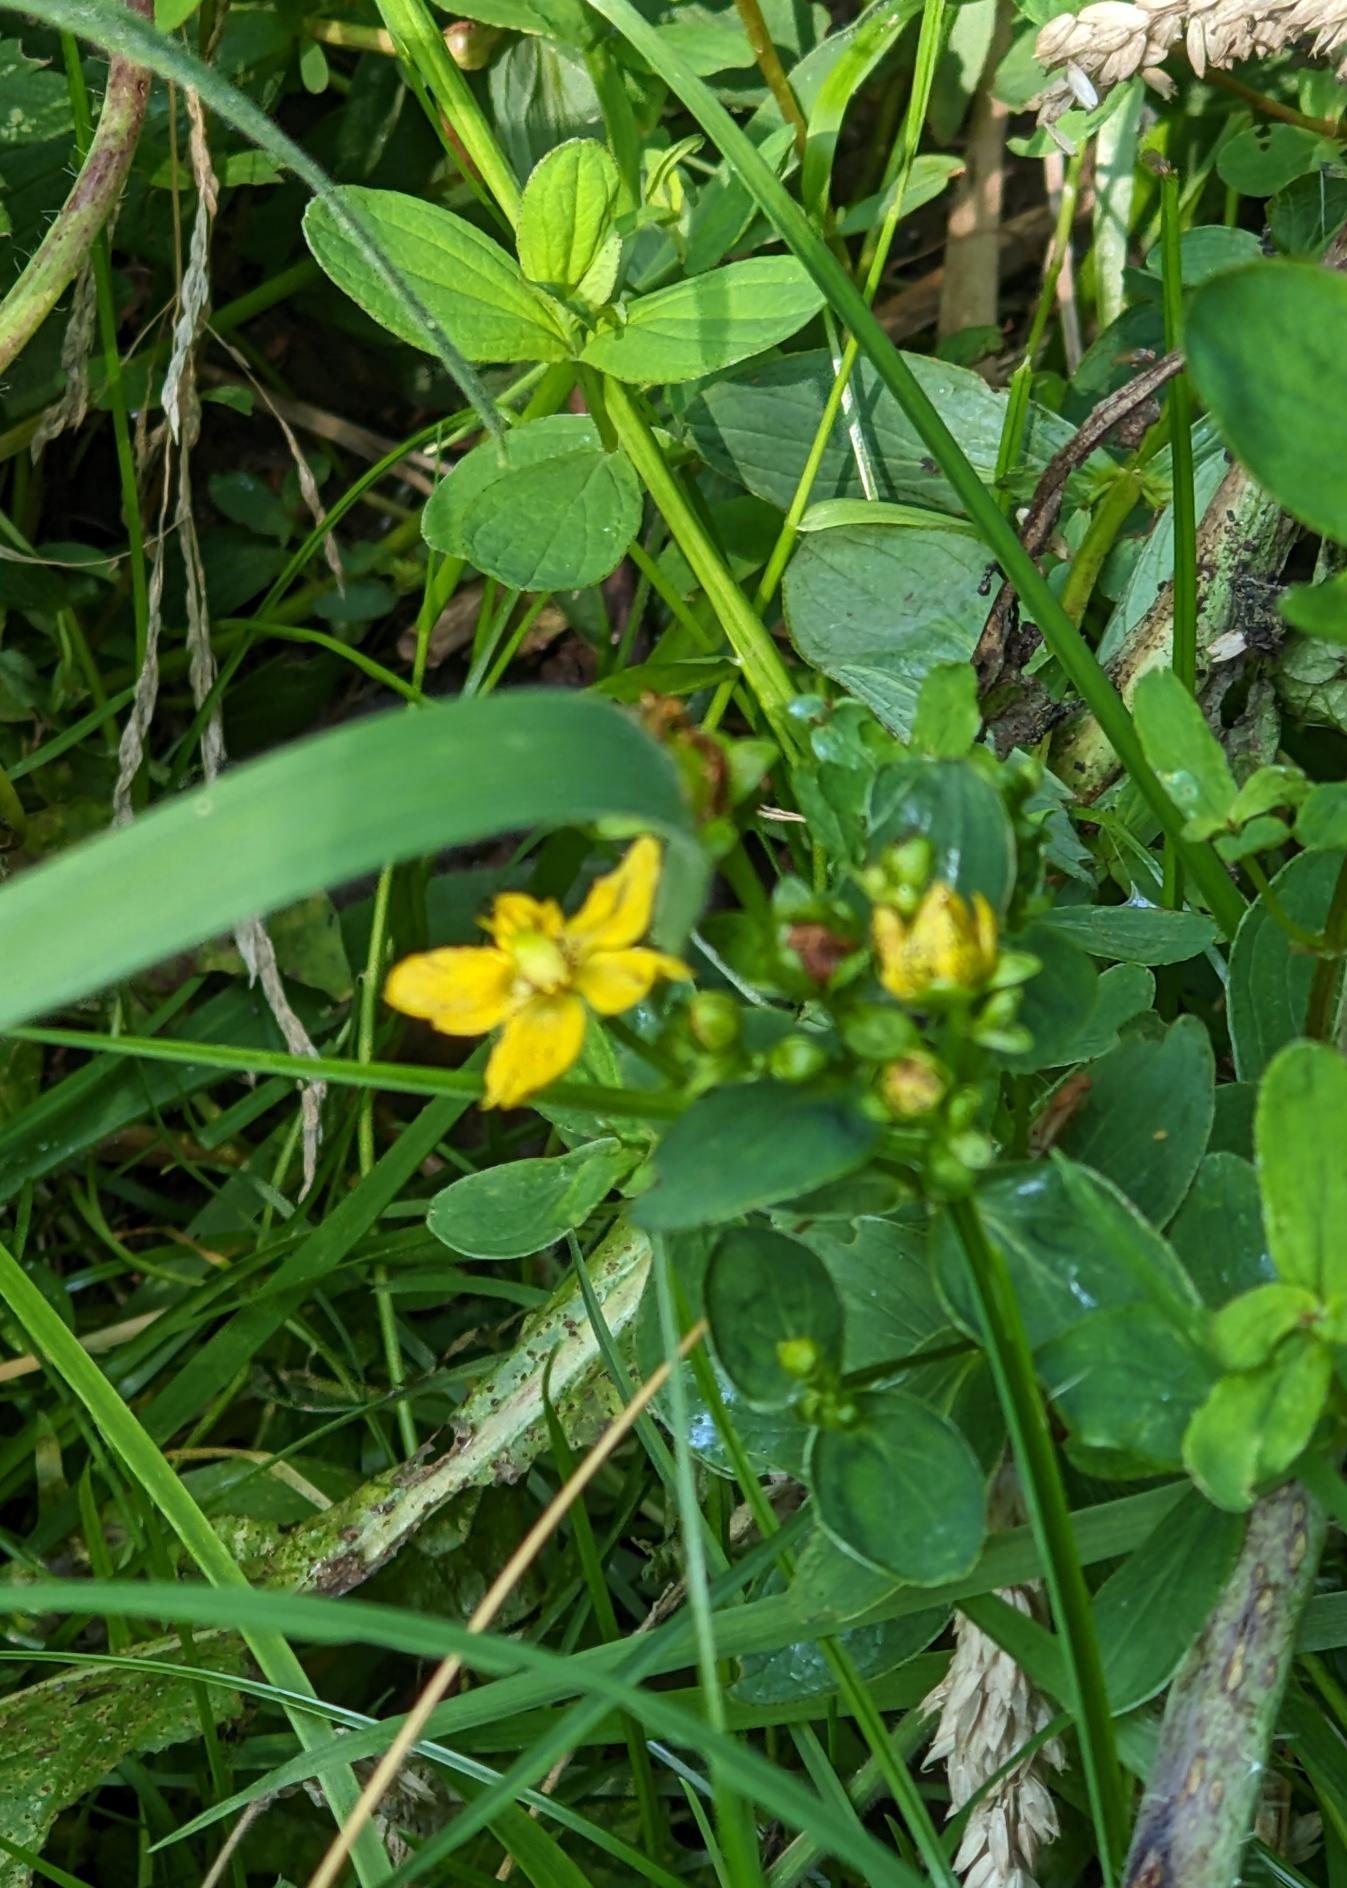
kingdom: Plantae
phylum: Tracheophyta
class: Magnoliopsida
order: Malpighiales
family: Hypericaceae
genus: Hypericum
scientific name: Hypericum maculatum
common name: Kantet perikon
